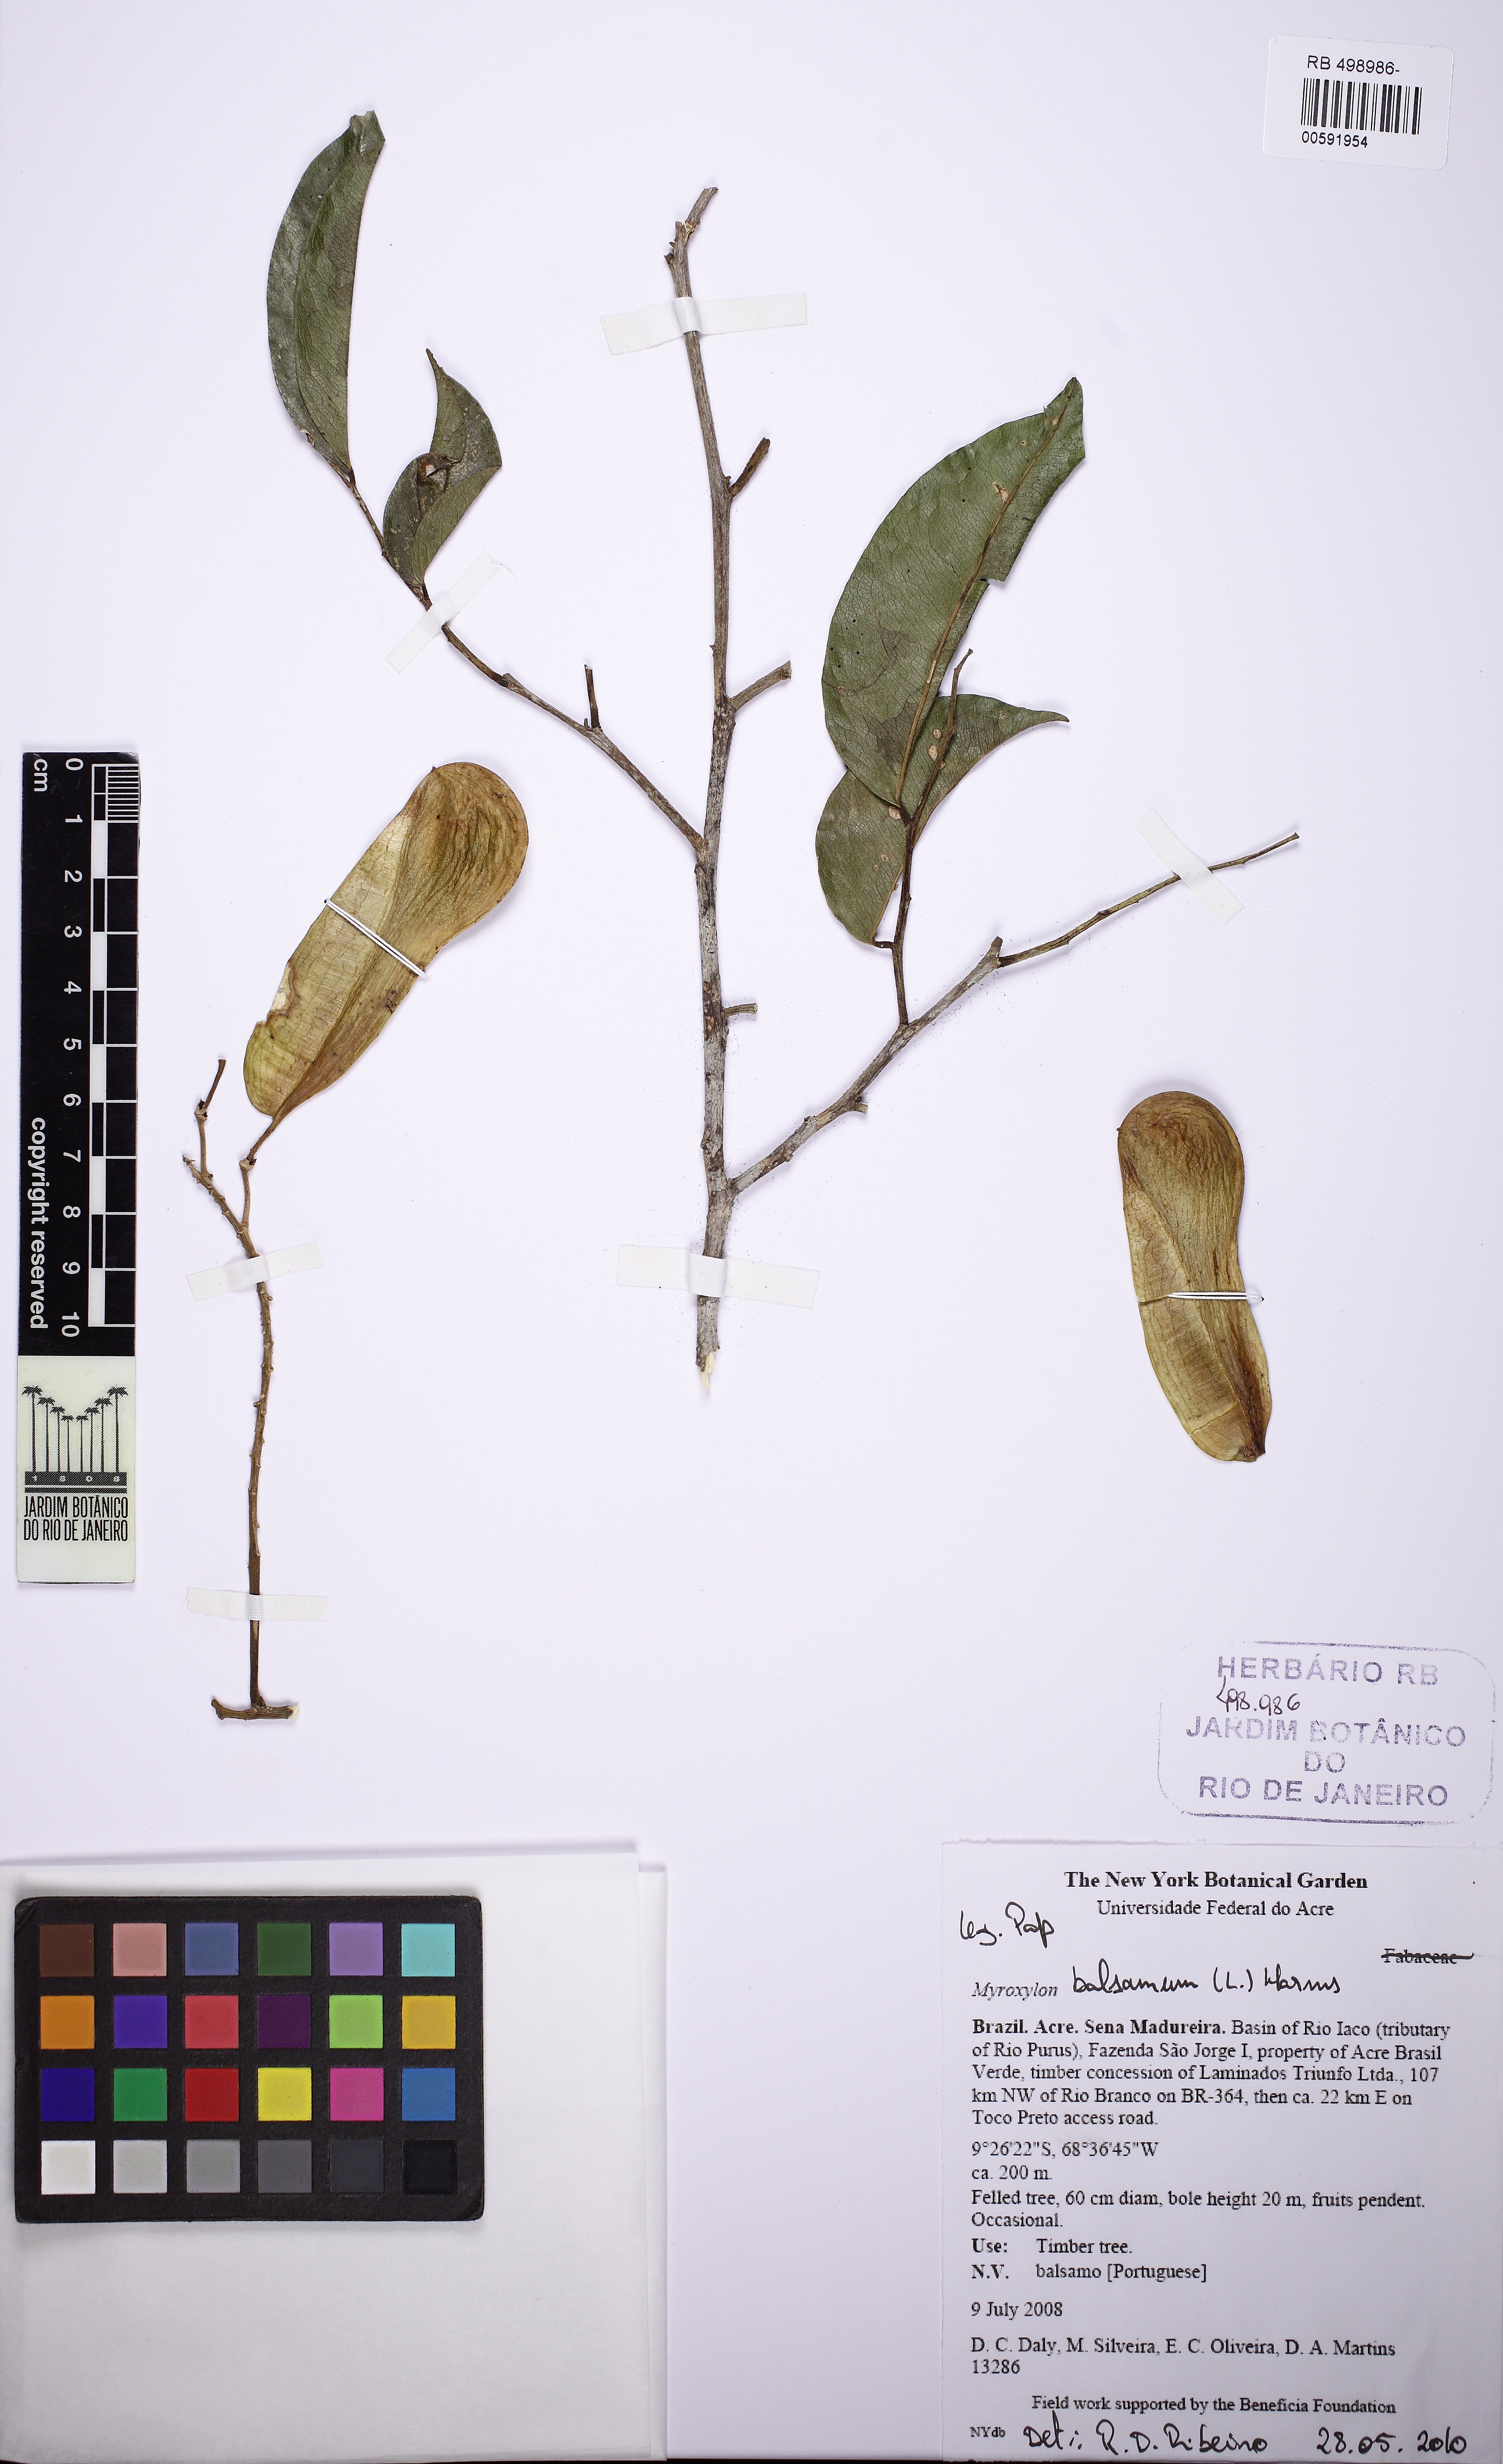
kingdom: Plantae
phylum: Tracheophyta
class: Magnoliopsida
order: Fabales
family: Fabaceae
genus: Myroxylon
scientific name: Myroxylon balsamum
